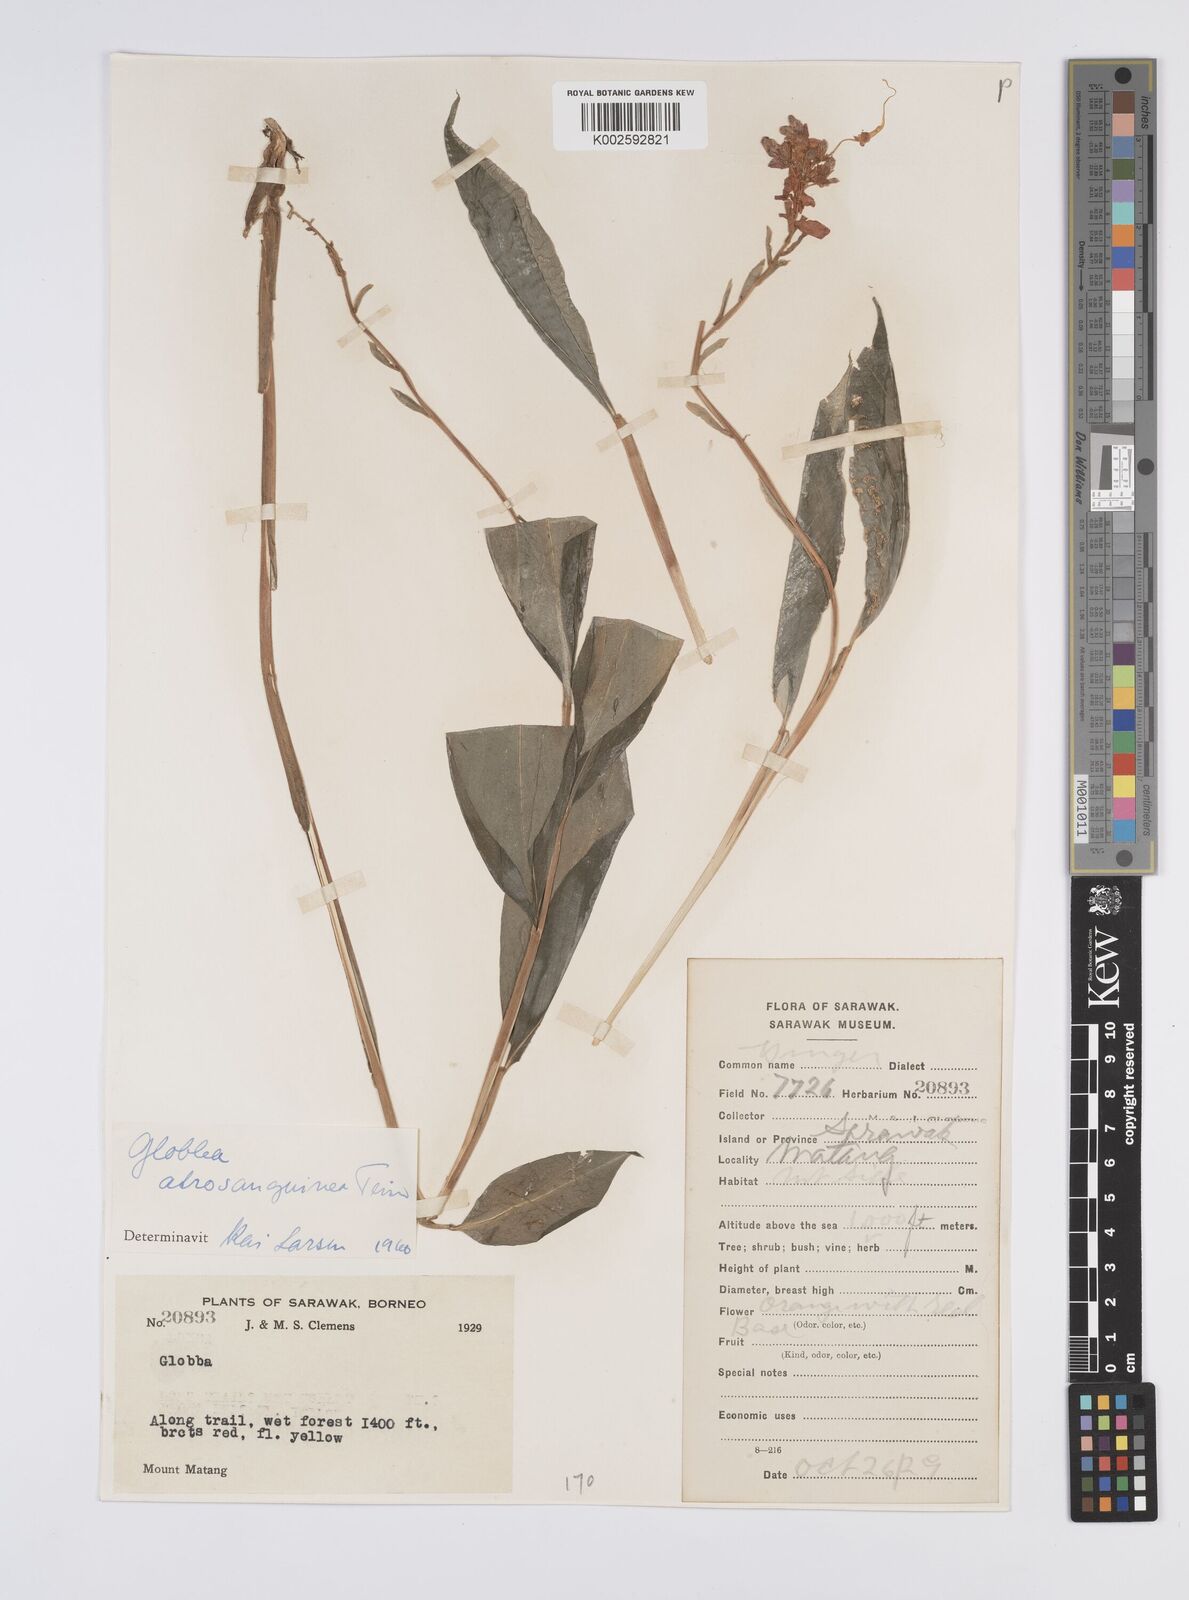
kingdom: Plantae
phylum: Tracheophyta
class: Liliopsida
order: Zingiberales
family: Zingiberaceae
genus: Globba
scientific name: Globba atrosanguinea
